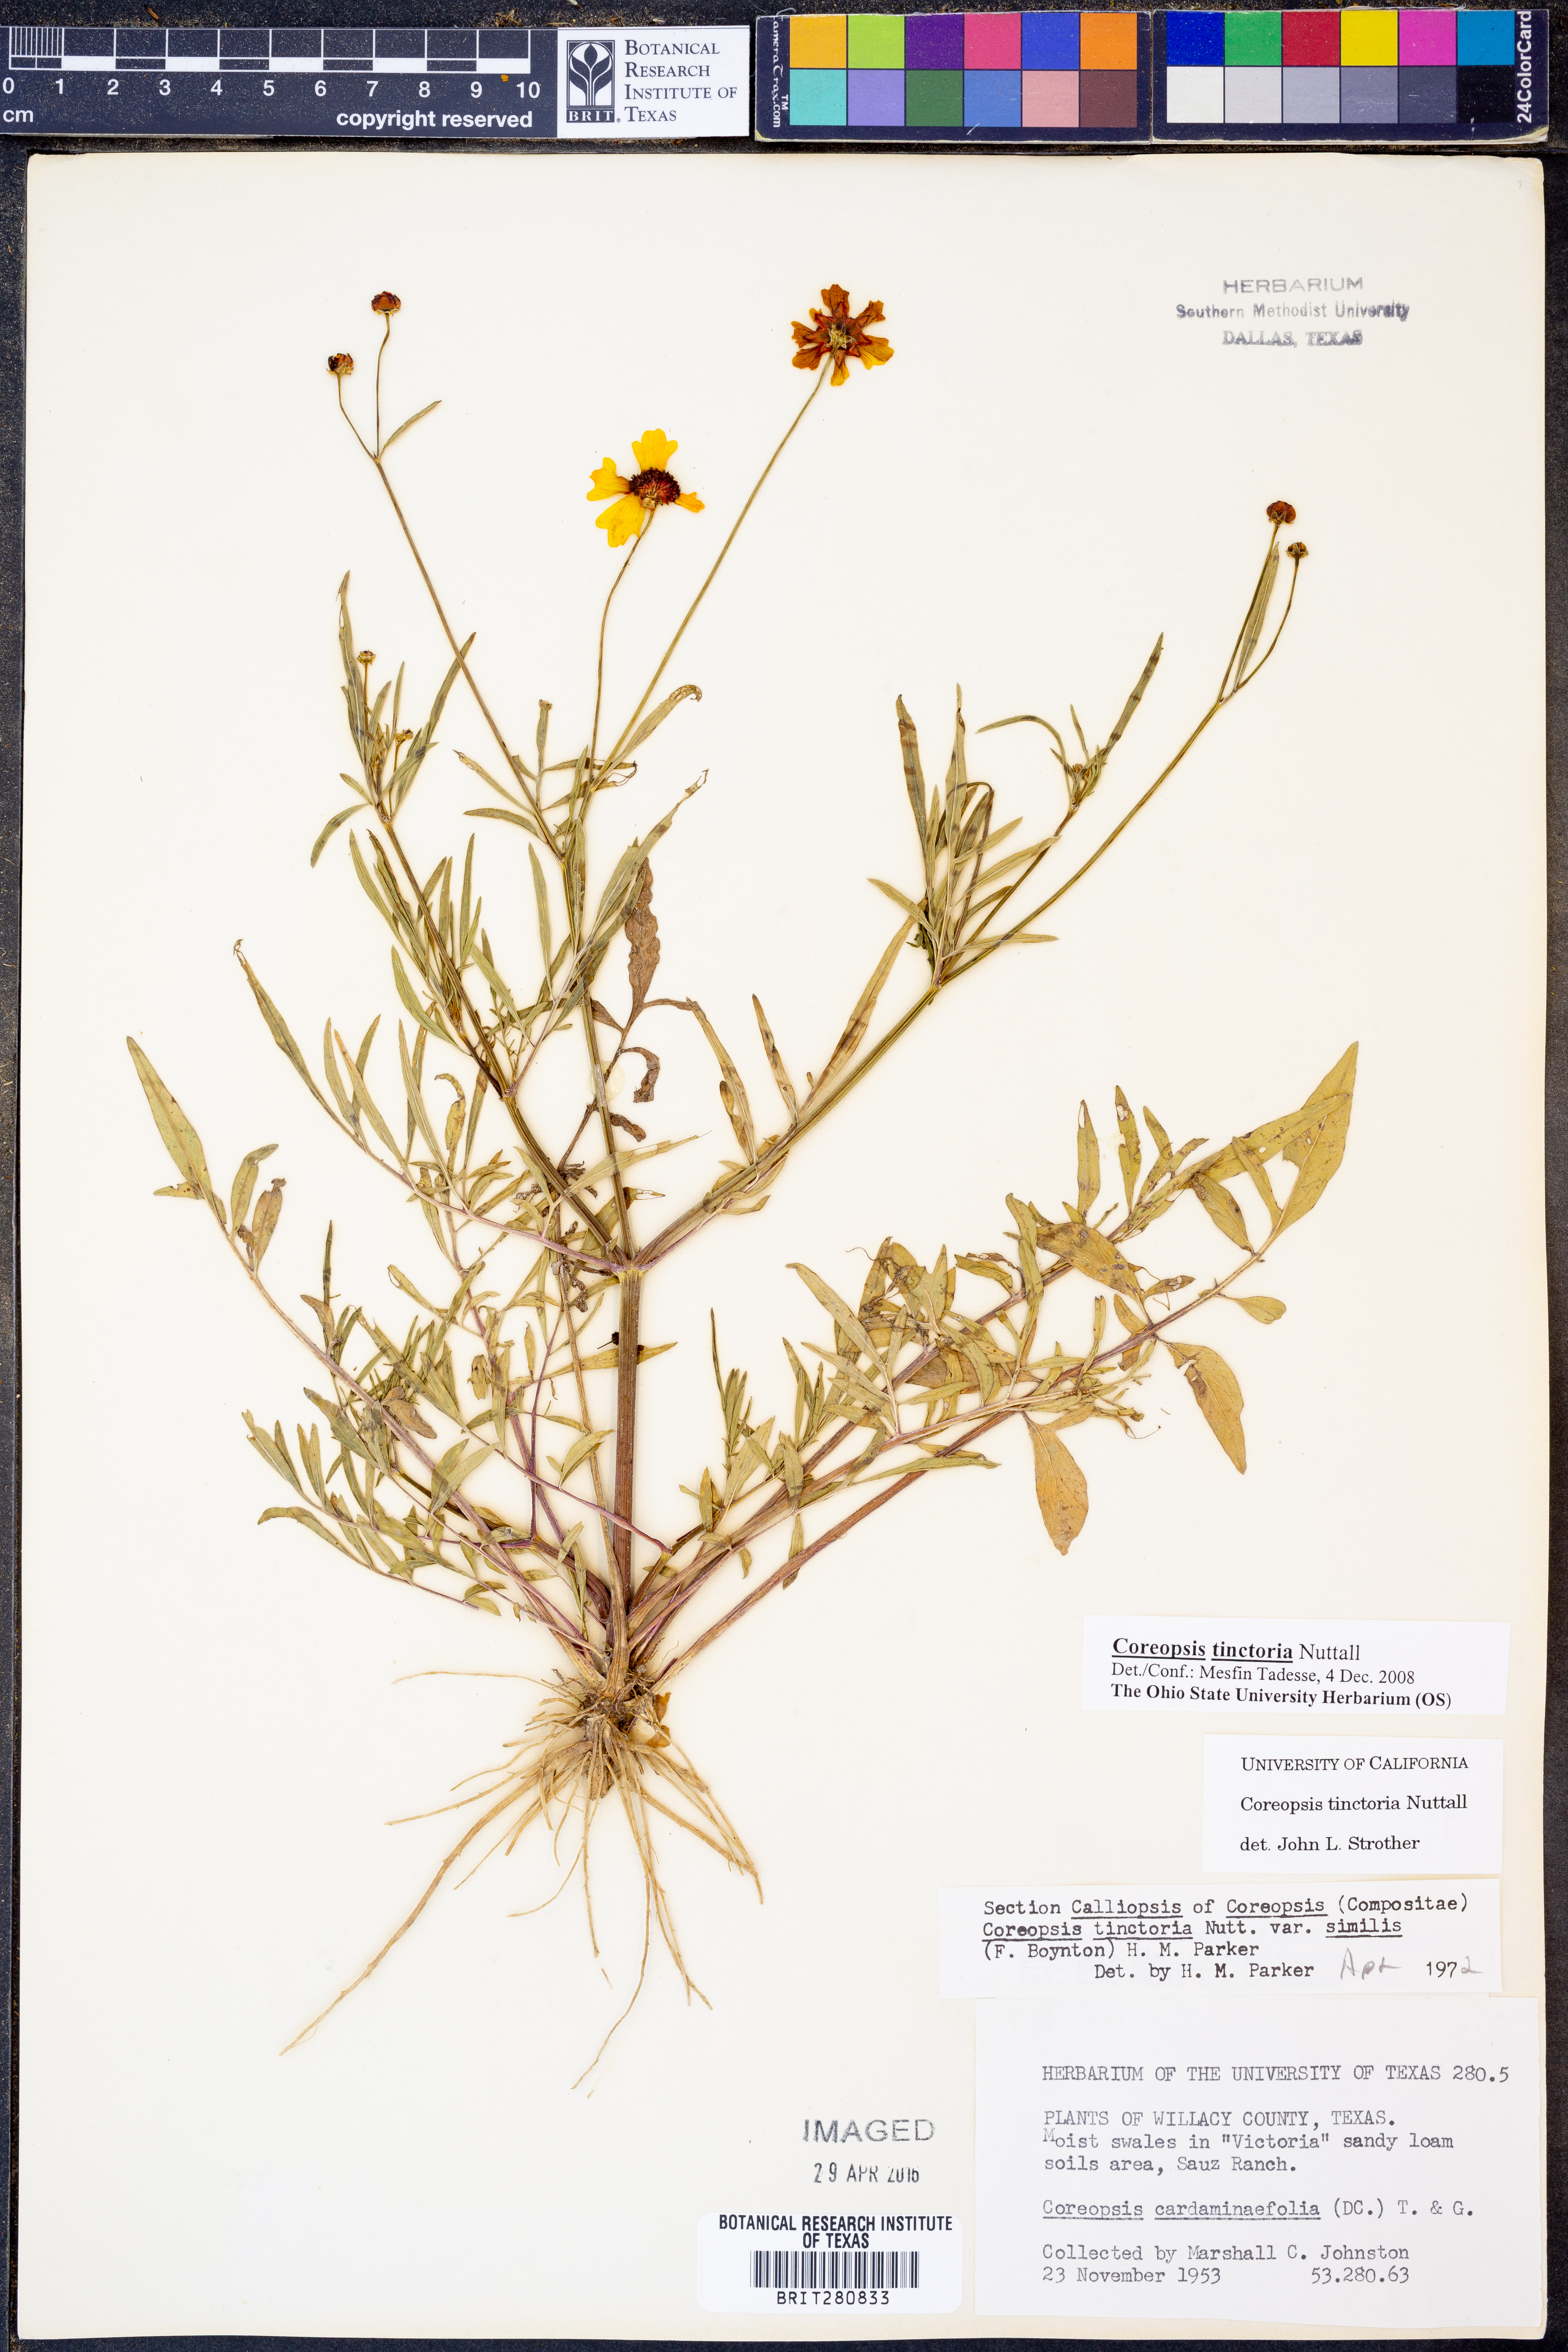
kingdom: Plantae
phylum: Tracheophyta
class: Magnoliopsida
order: Asterales
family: Asteraceae
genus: Coreopsis
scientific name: Coreopsis tinctoria
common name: Garden tickseed
